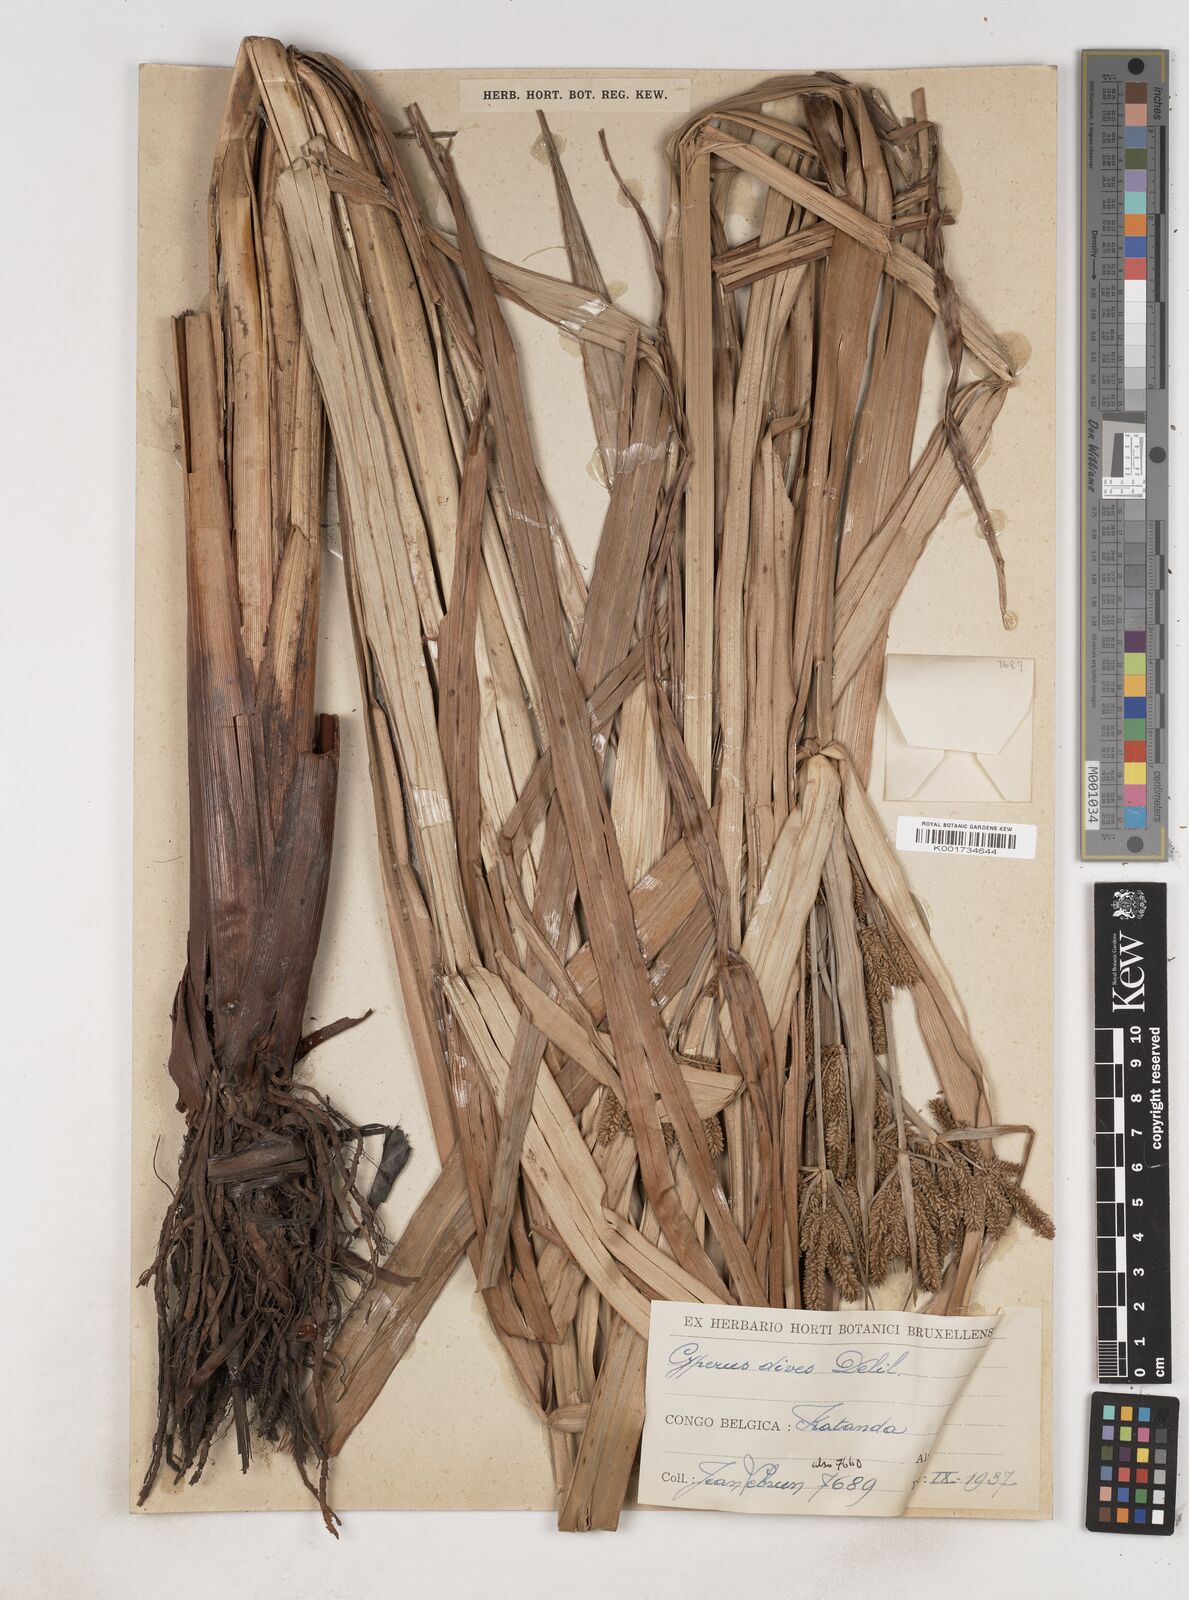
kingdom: Plantae
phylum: Tracheophyta
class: Liliopsida
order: Poales
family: Cyperaceae
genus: Cyperus
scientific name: Cyperus dives
